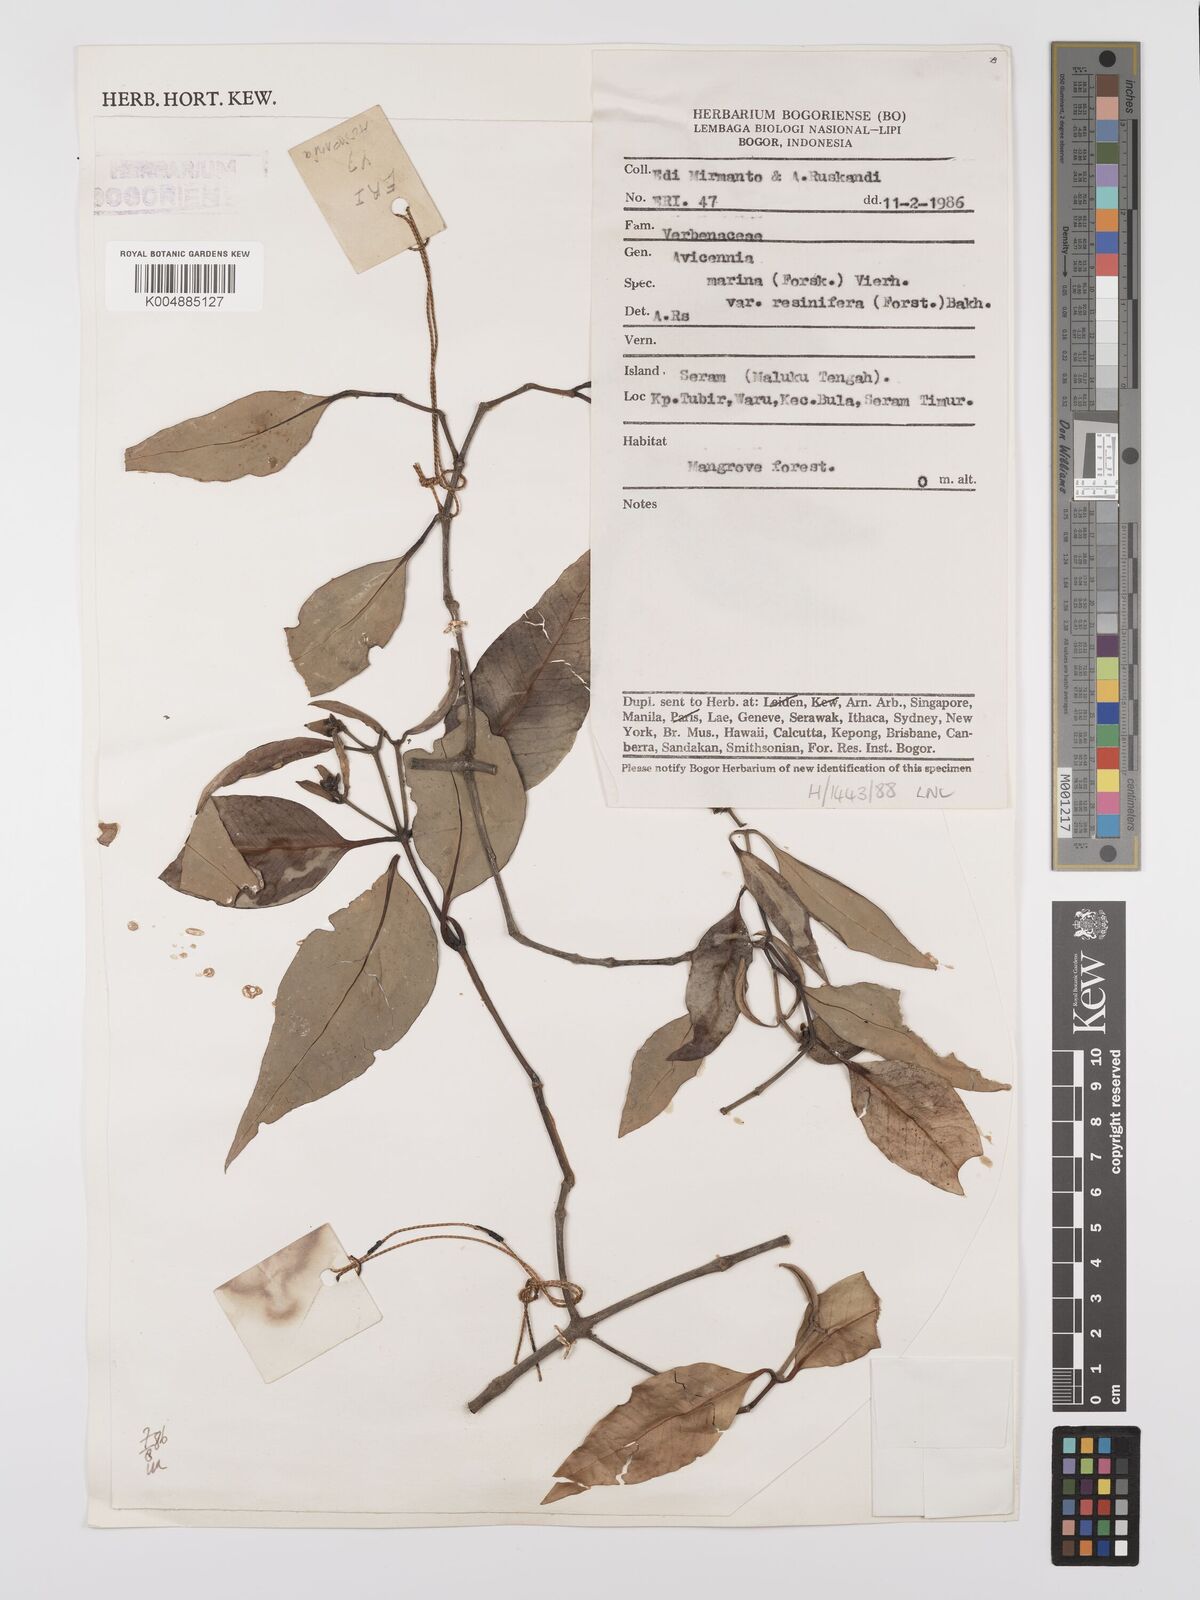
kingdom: Plantae
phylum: Tracheophyta
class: Magnoliopsida
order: Lamiales
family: Acanthaceae
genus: Avicennia
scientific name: Avicennia marina
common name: Gray mangrove
